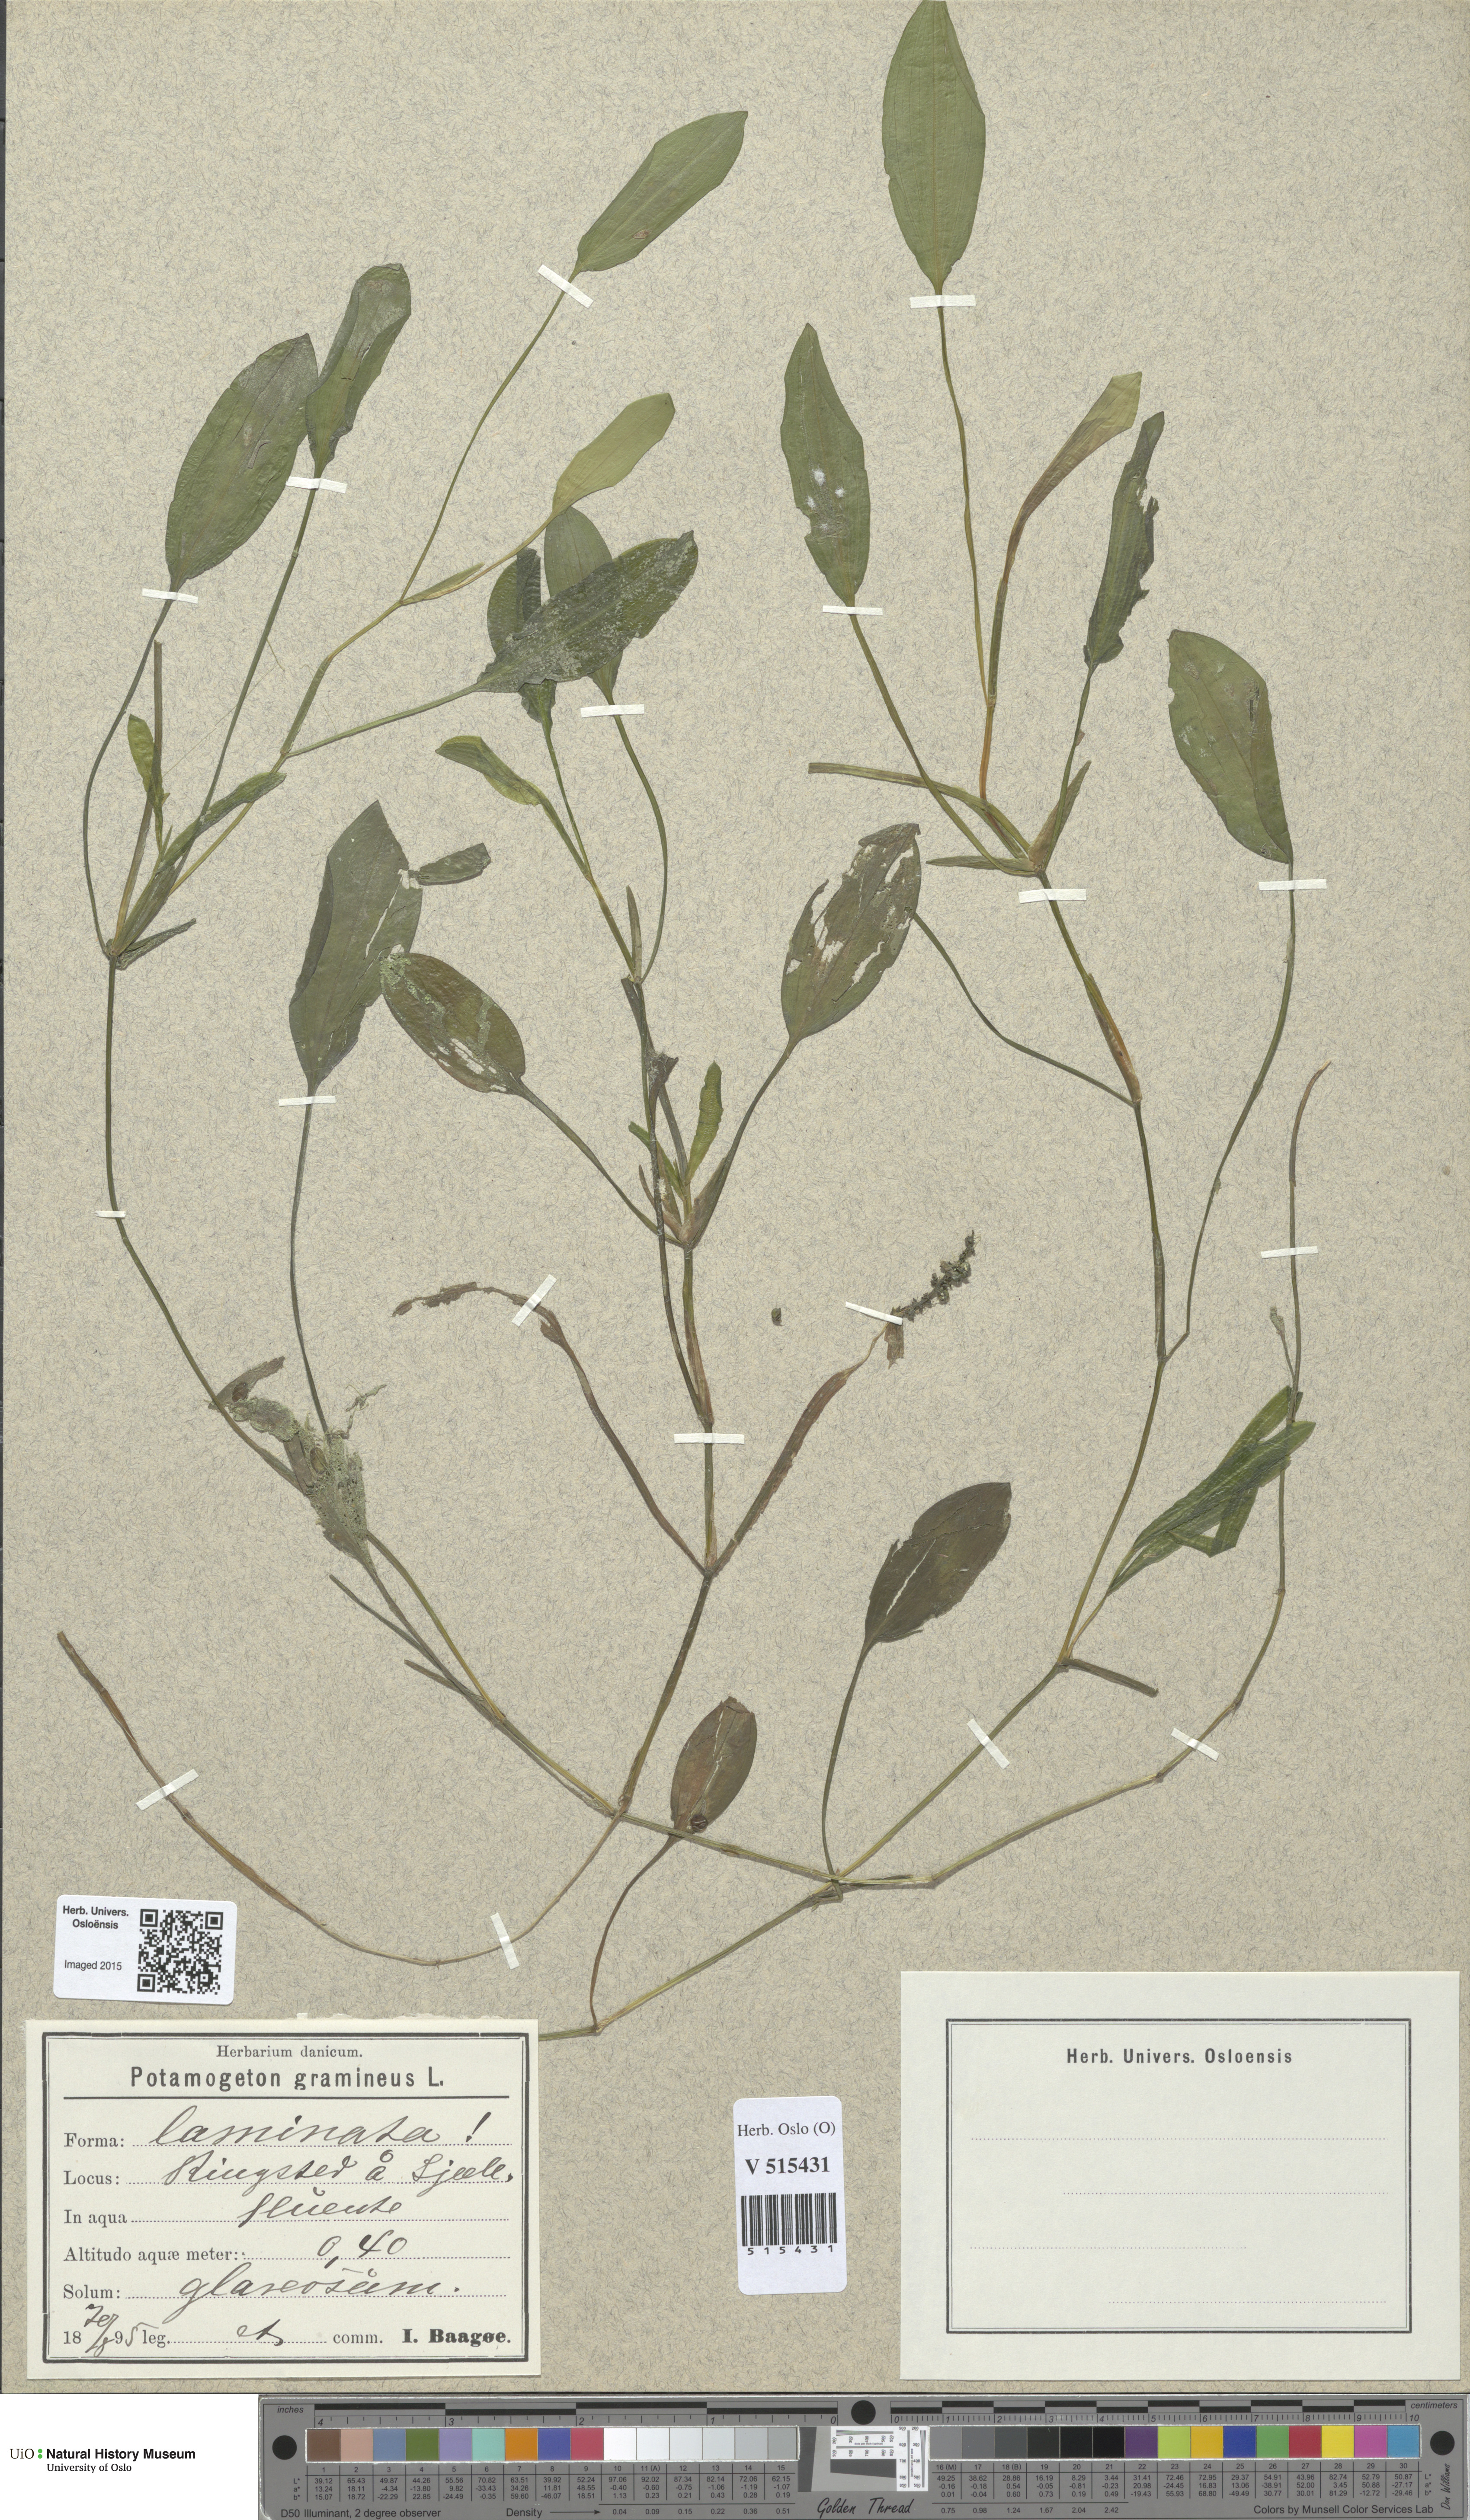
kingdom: Plantae
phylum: Tracheophyta
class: Liliopsida
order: Alismatales
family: Potamogetonaceae
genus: Potamogeton
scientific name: Potamogeton gramineus
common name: Various-leaved pondweed
